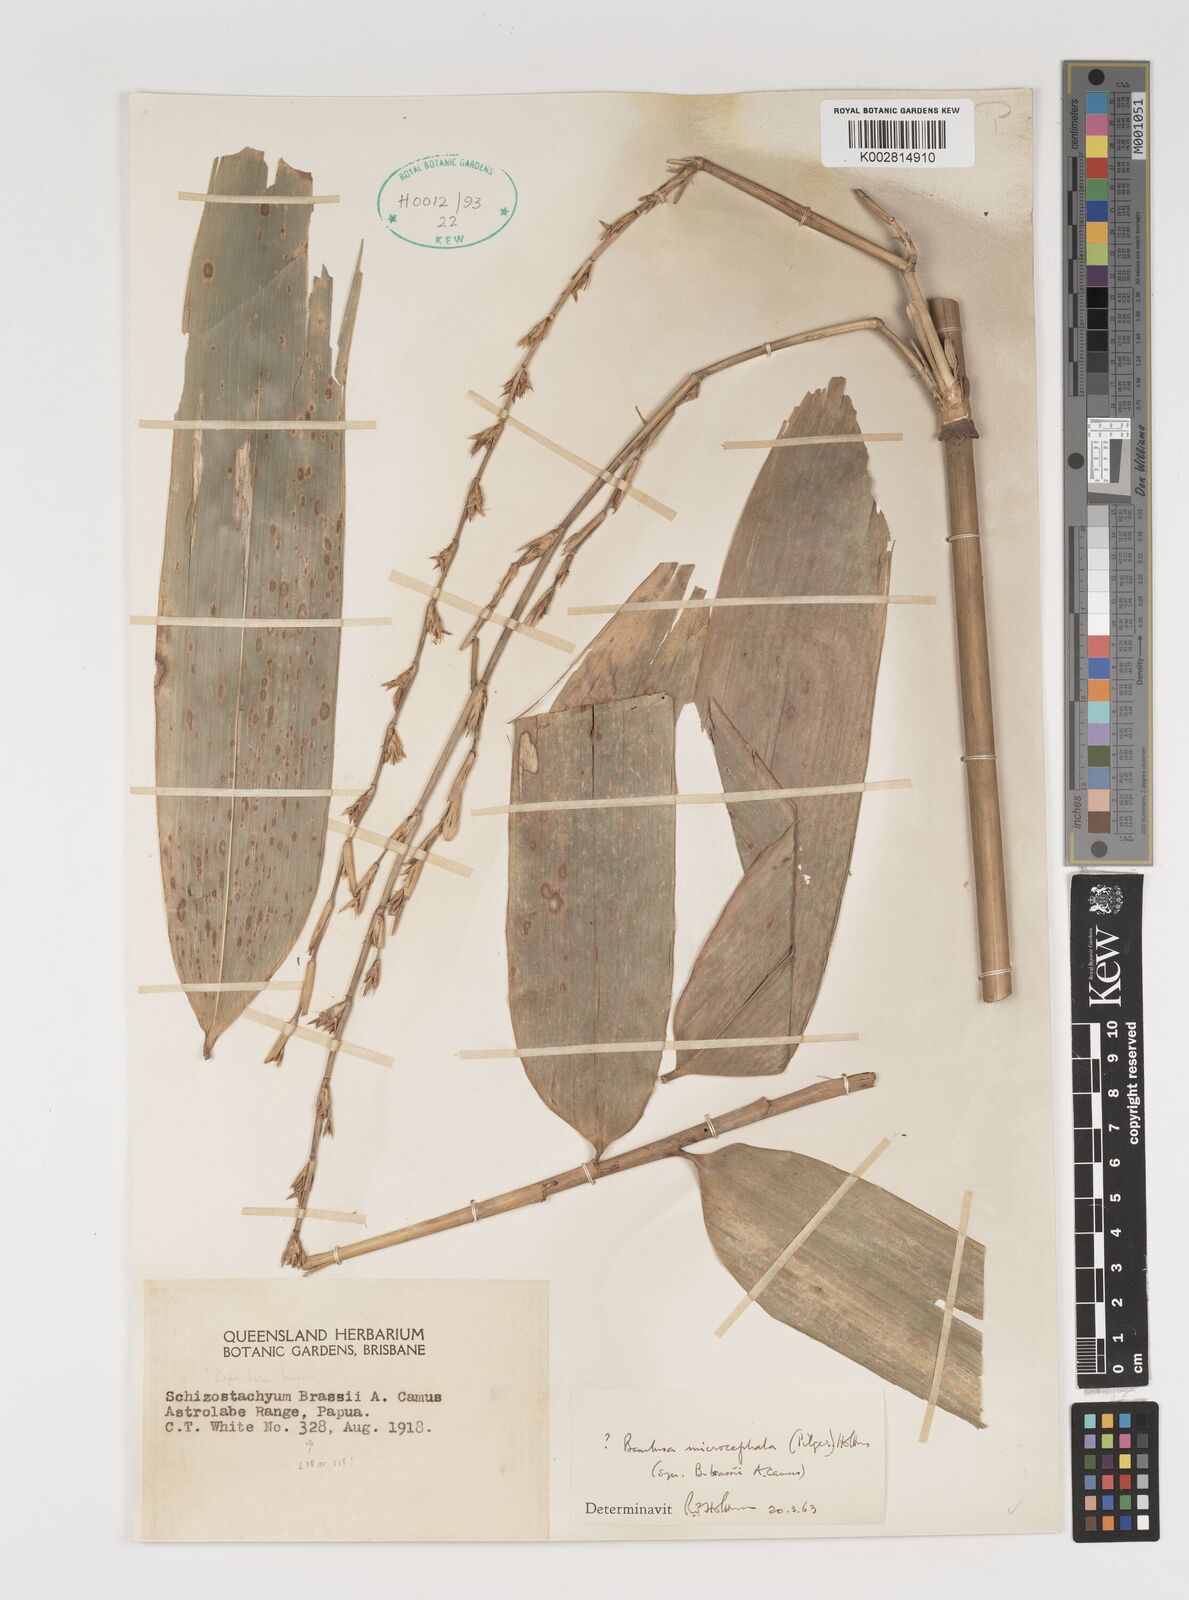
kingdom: Plantae
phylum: Tracheophyta
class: Liliopsida
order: Poales
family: Poaceae
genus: Fimbribambusa
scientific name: Fimbribambusa microcephala
